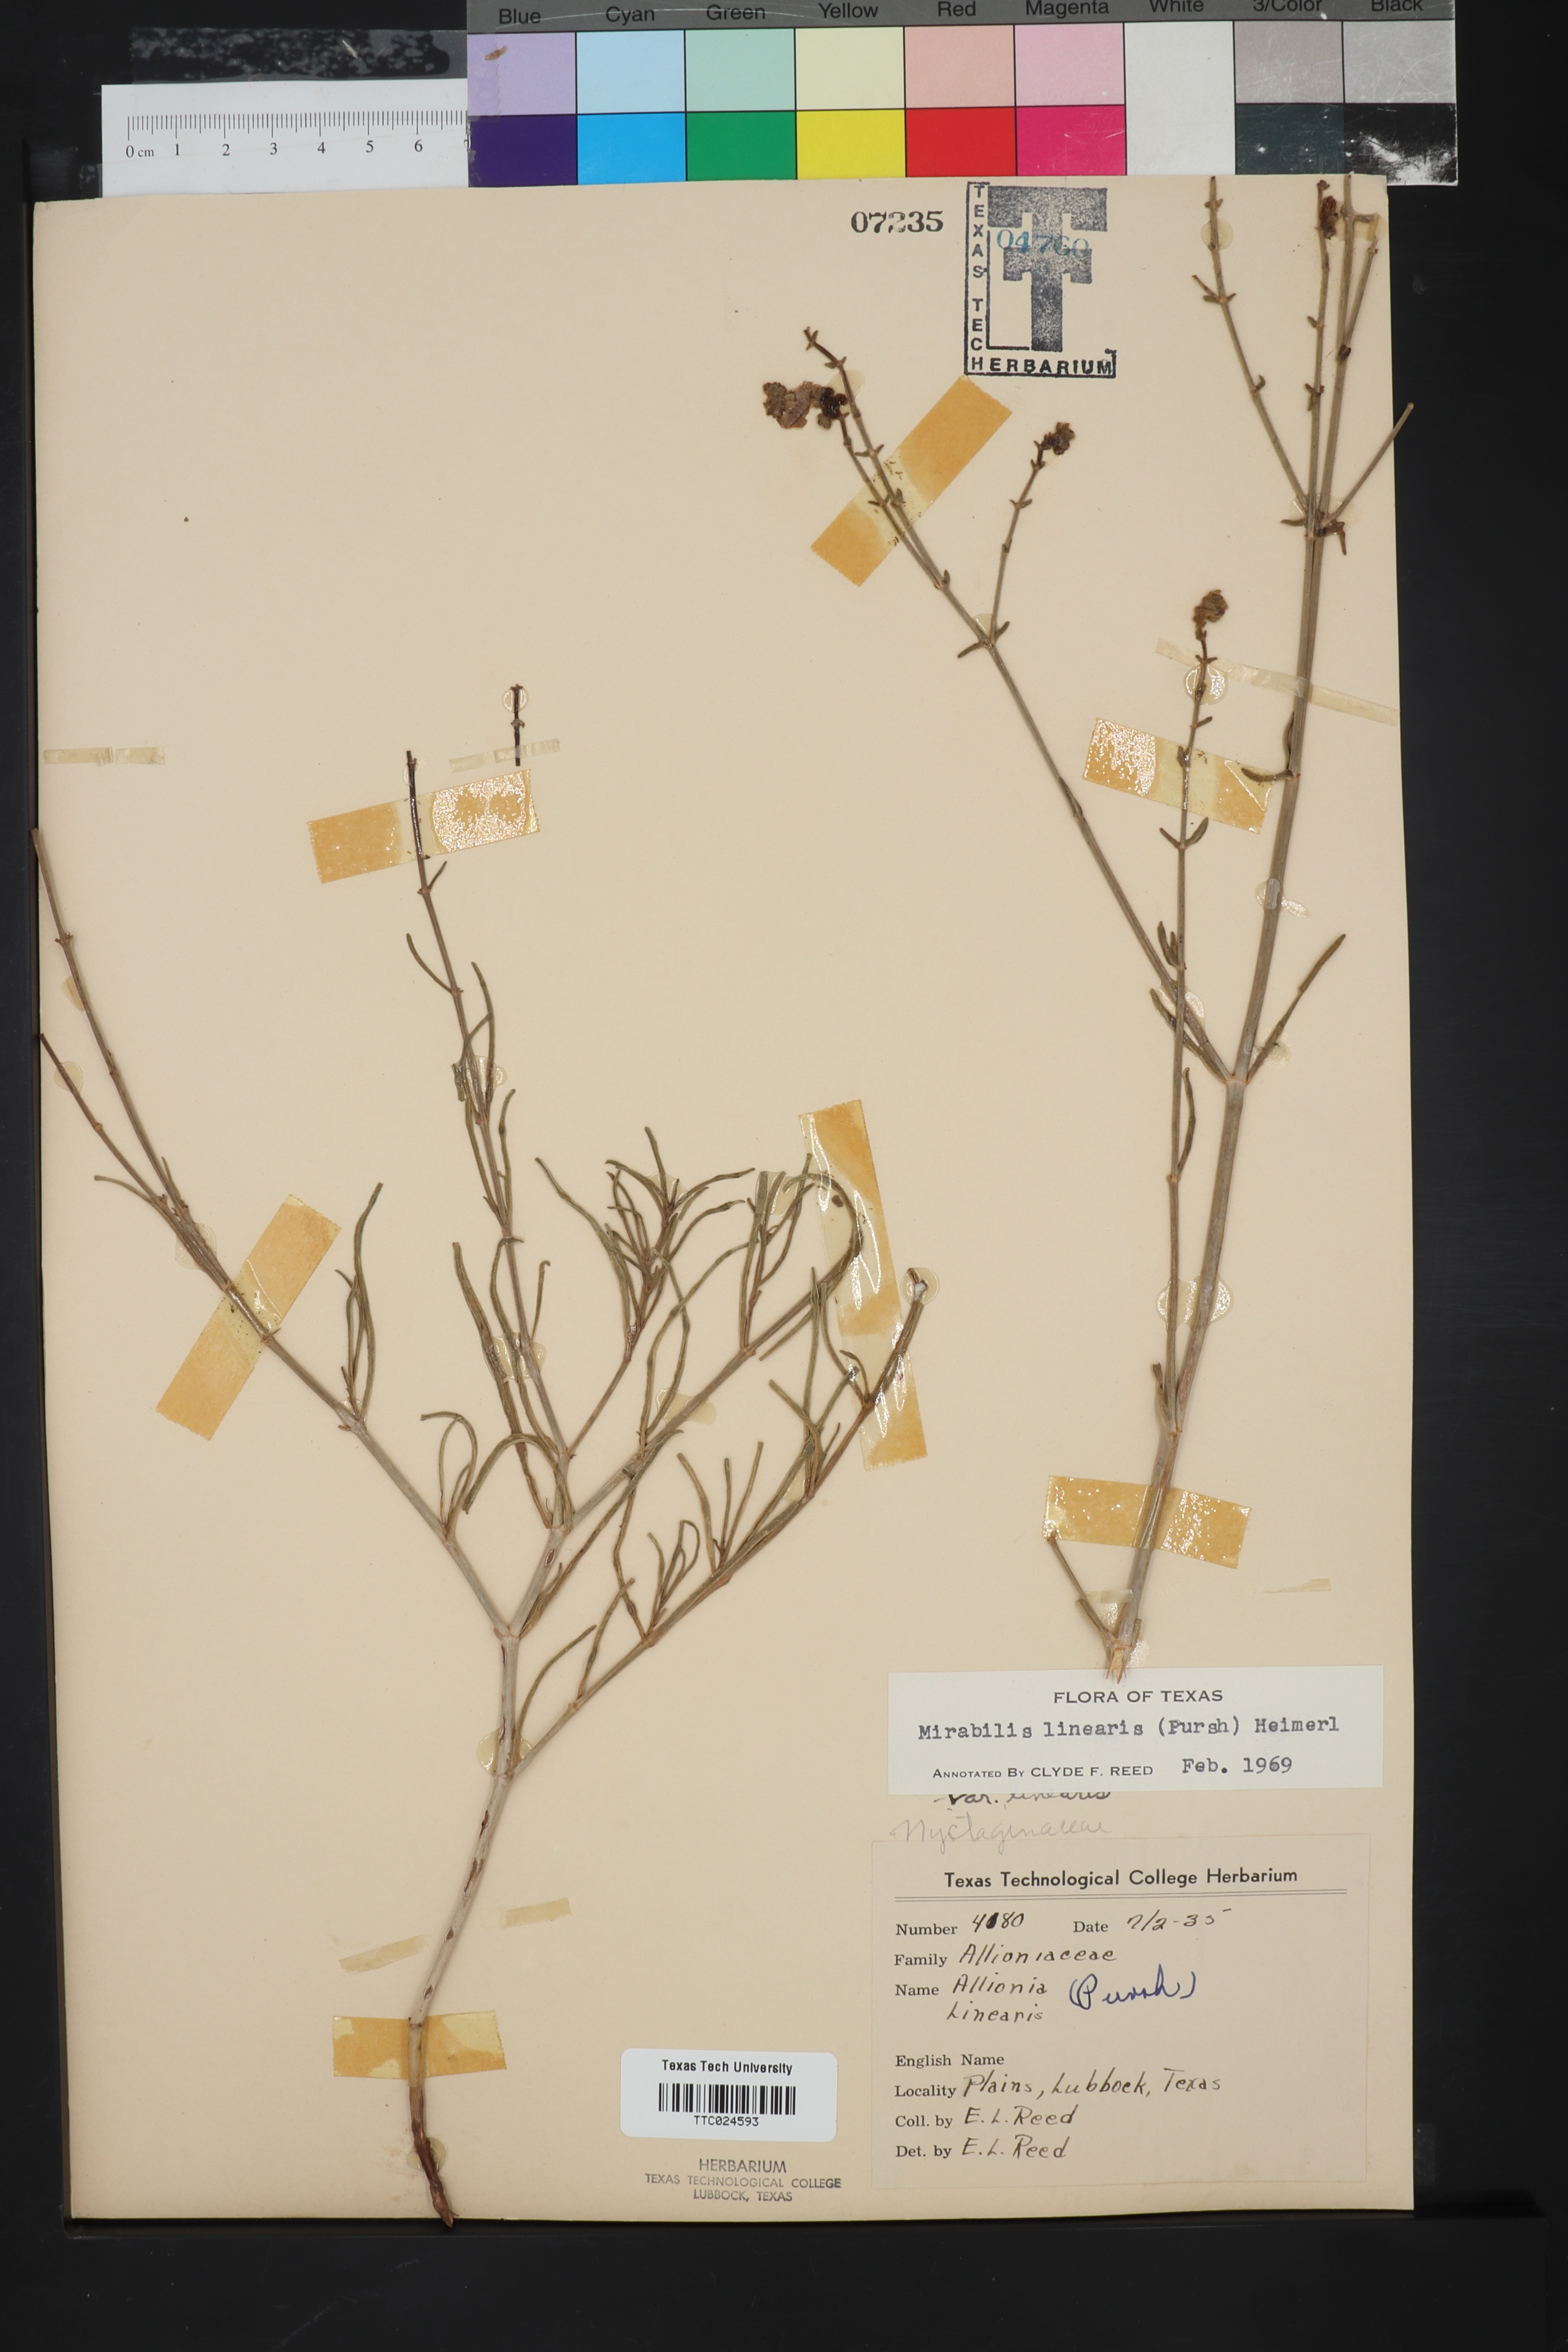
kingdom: Plantae
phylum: Tracheophyta
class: Magnoliopsida
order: Caryophyllales
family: Nyctaginaceae
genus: Mirabilis
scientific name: Mirabilis linearis
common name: Linear-leaved four-o'clock
